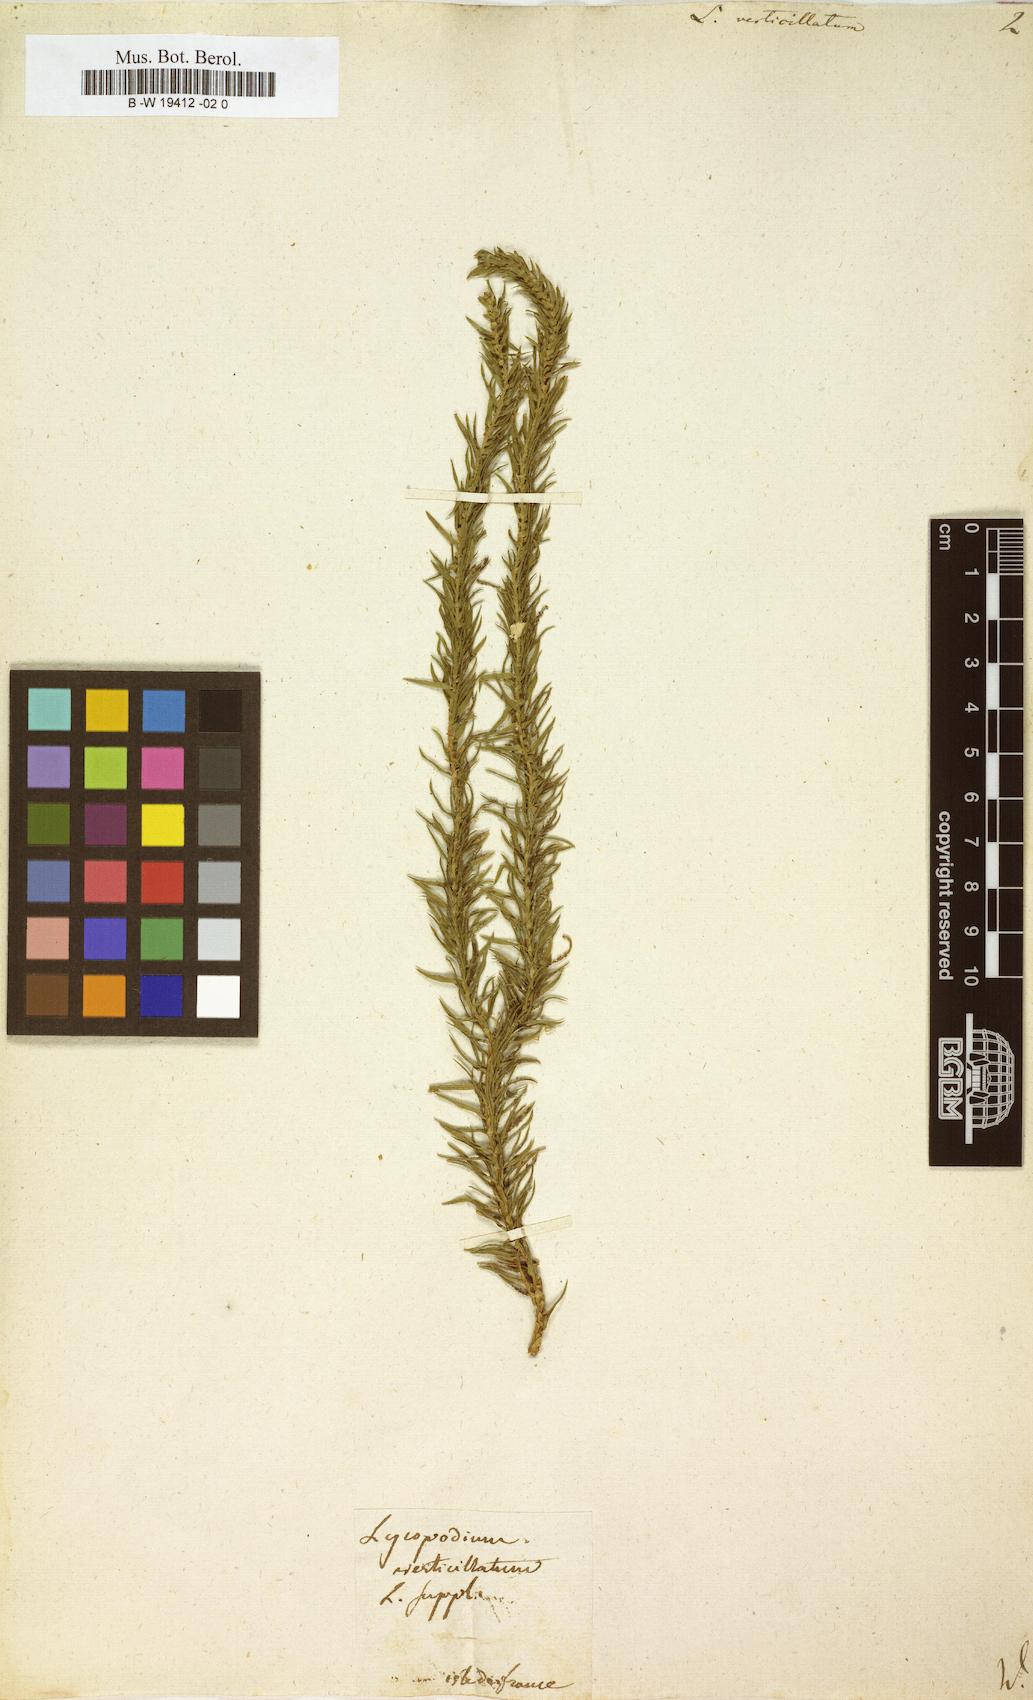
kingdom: Plantae
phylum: Tracheophyta
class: Lycopodiopsida
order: Lycopodiales
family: Lycopodiaceae
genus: Phlegmariurus
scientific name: Phlegmariurus verticillatus
